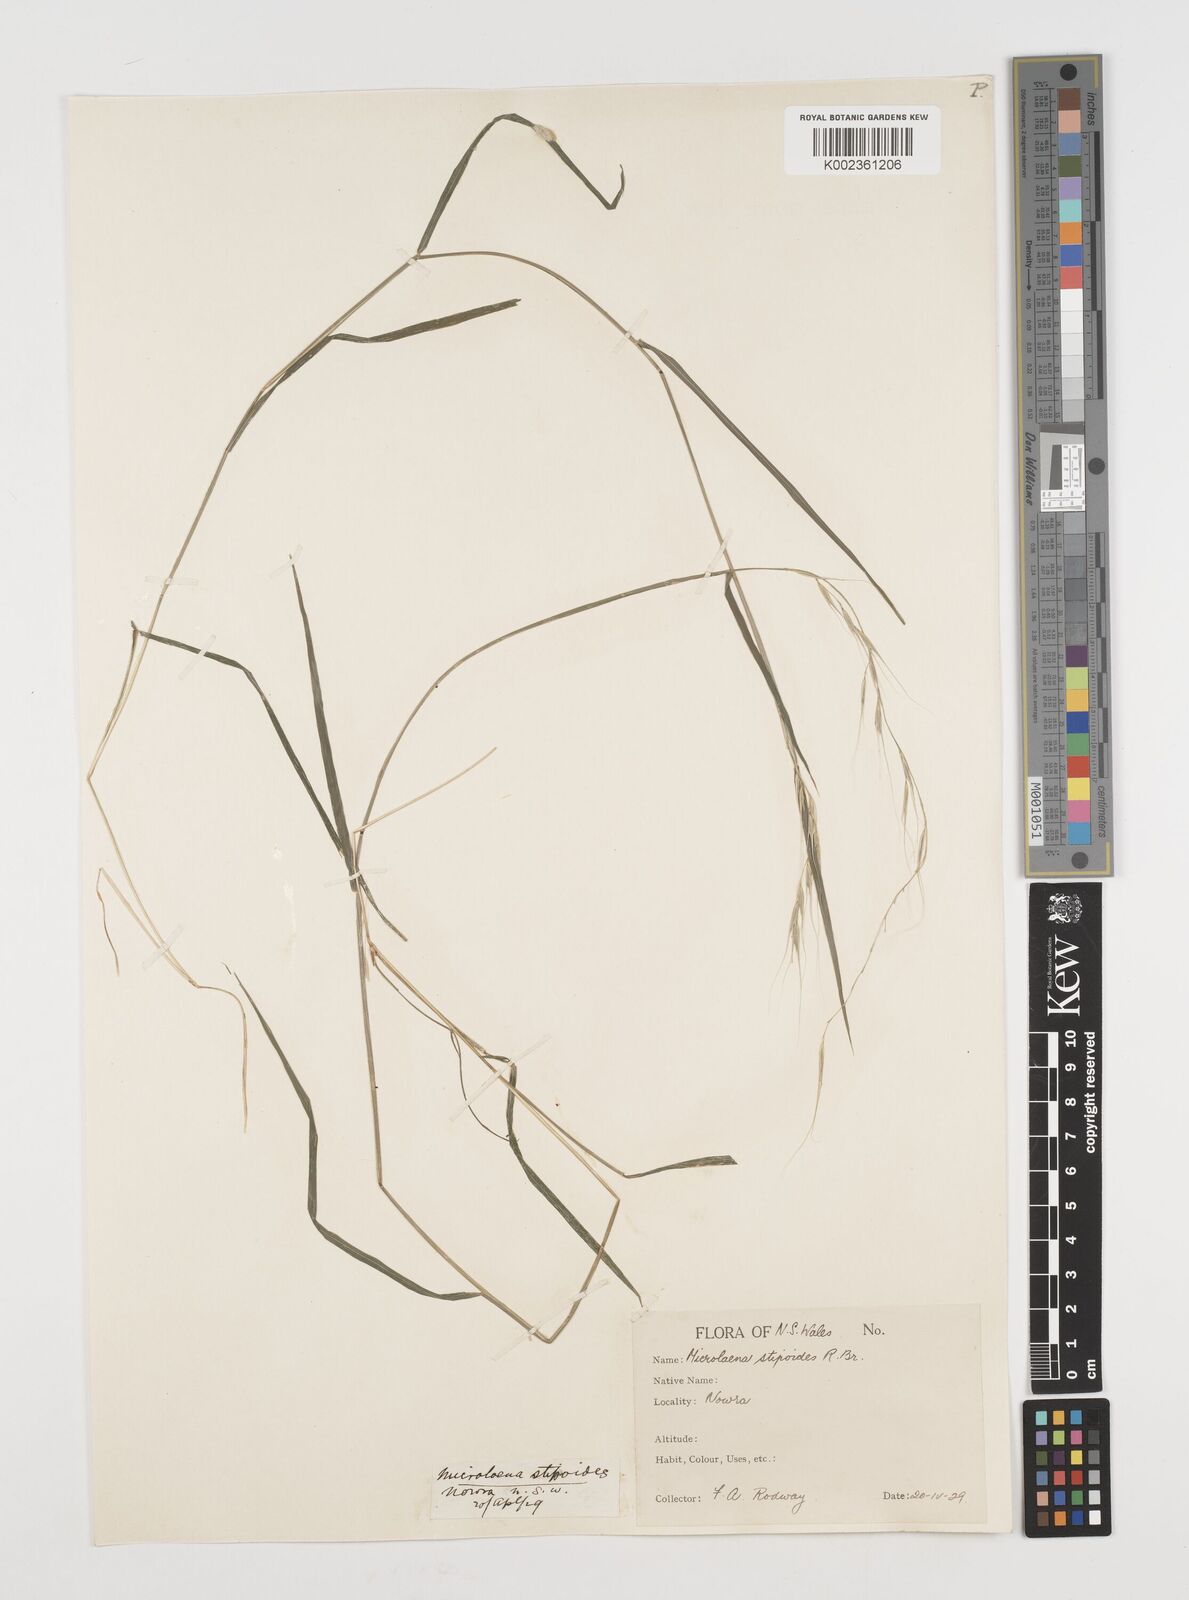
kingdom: Plantae
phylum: Tracheophyta
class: Liliopsida
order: Poales
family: Poaceae
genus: Microlaena
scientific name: Microlaena stipoides
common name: Meadow ricegrass
